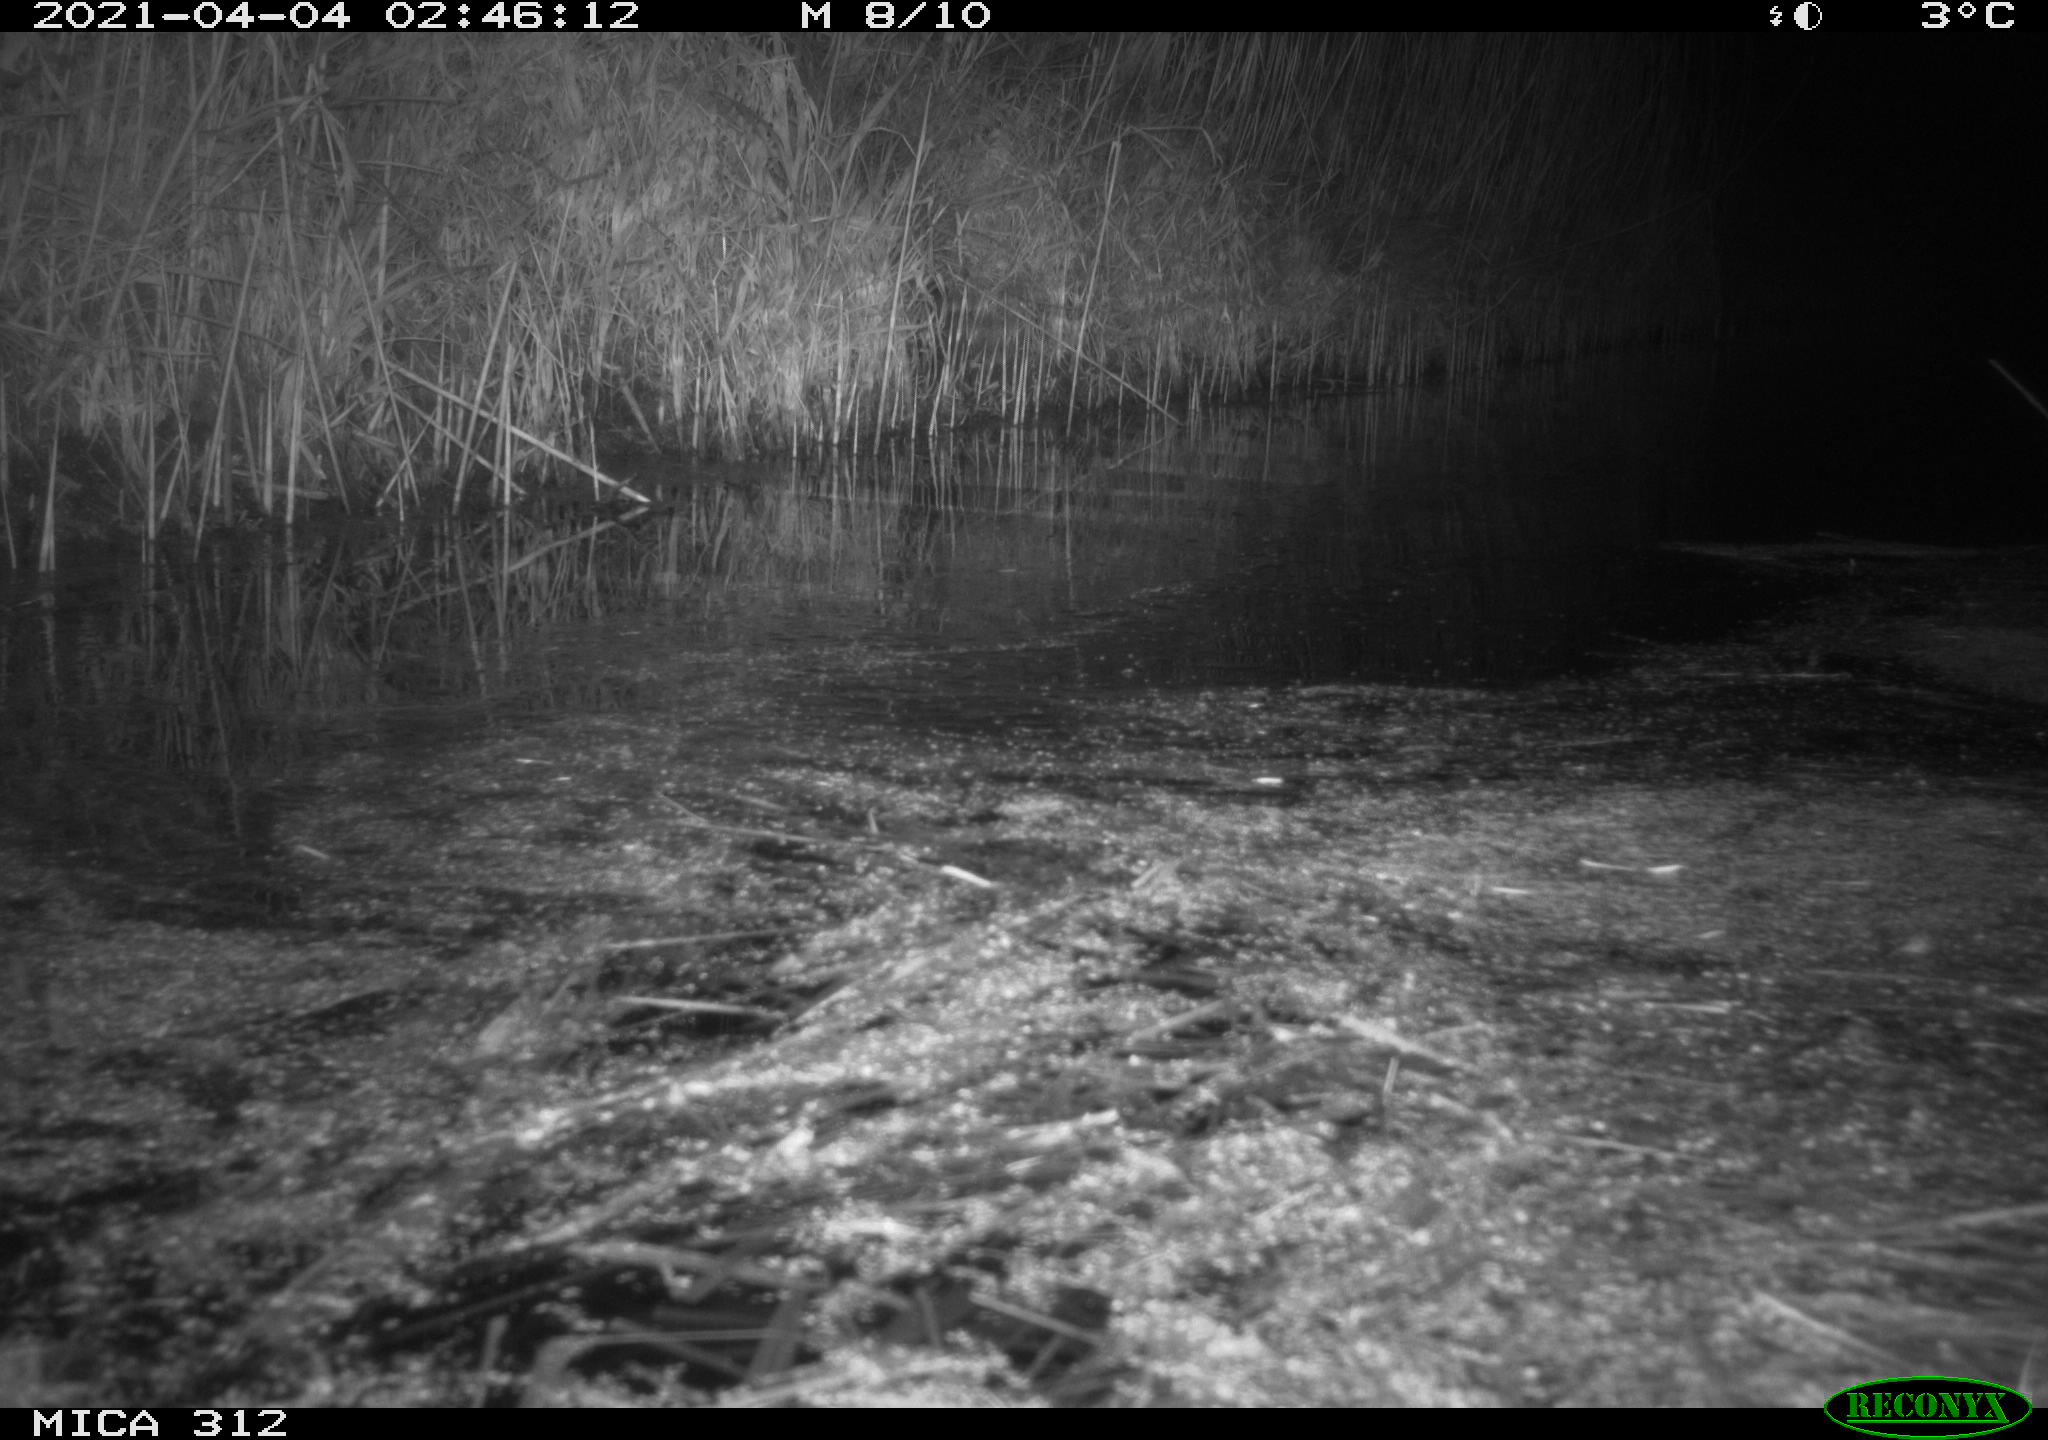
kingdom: Animalia
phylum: Chordata
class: Aves
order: Gruiformes
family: Rallidae
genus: Fulica
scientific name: Fulica atra
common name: Eurasian coot
